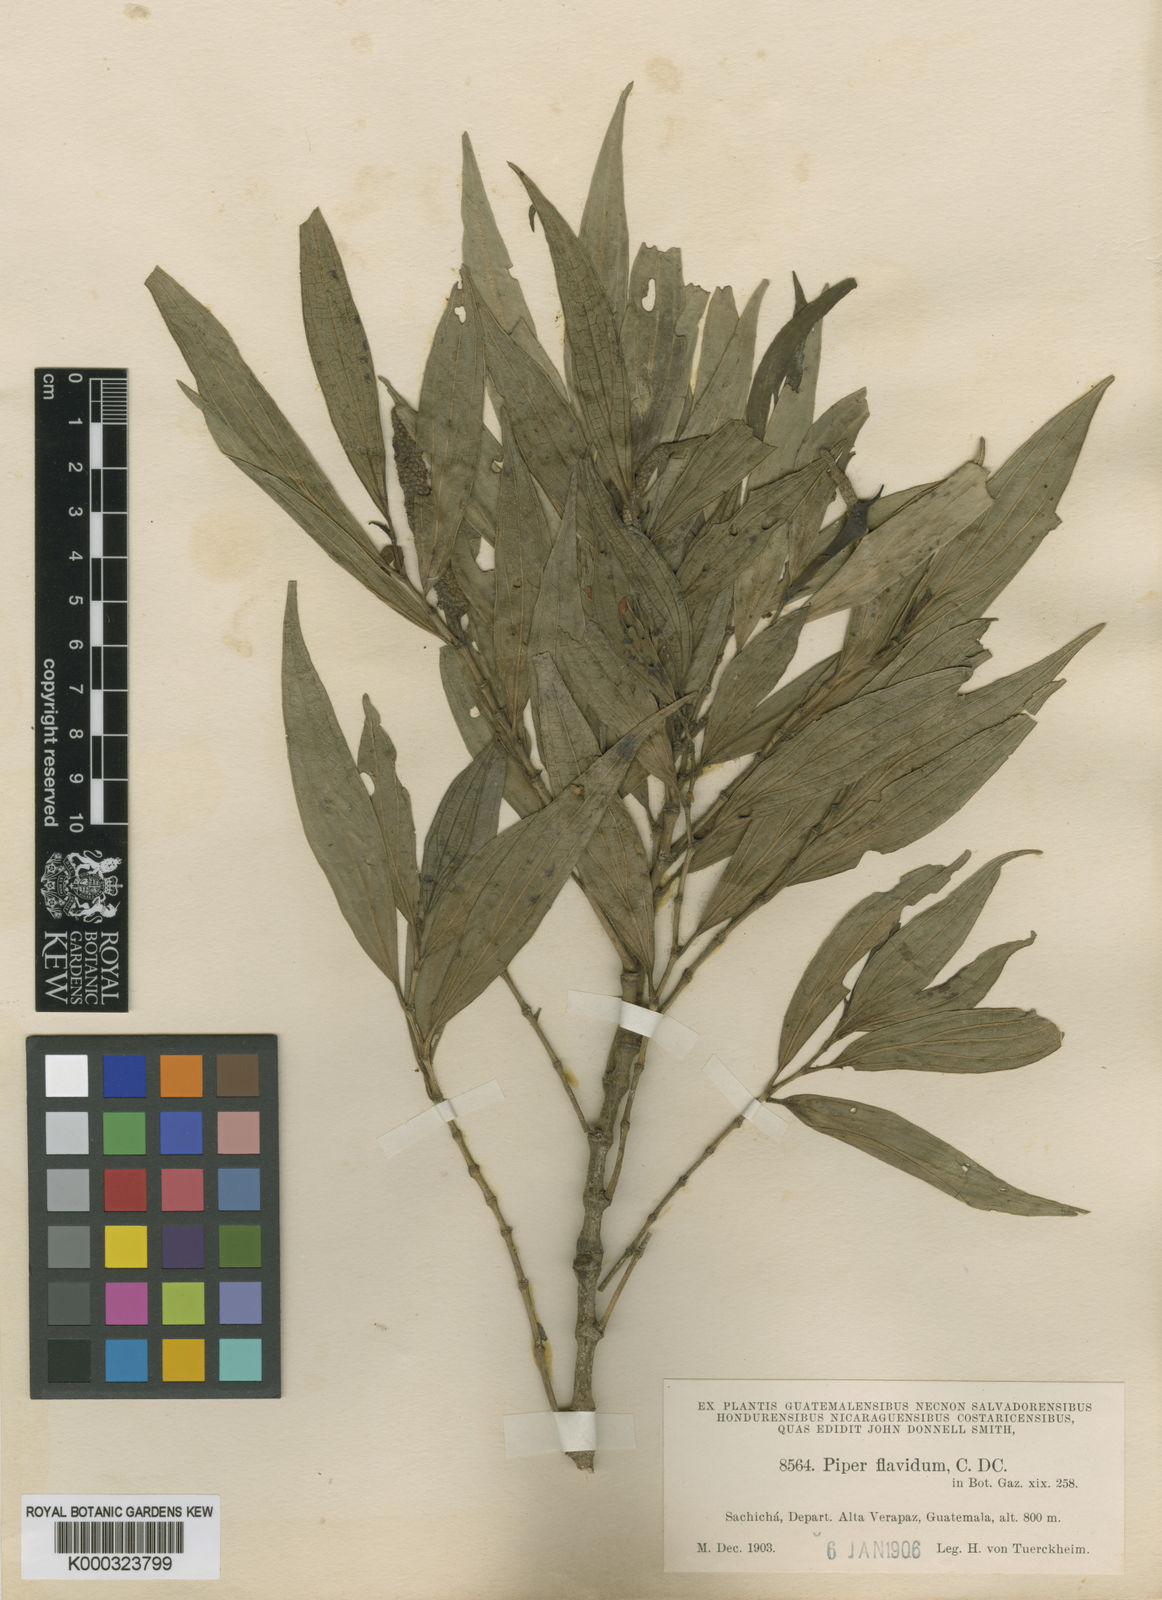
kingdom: Plantae
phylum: Tracheophyta
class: Magnoliopsida
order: Piperales
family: Piperaceae
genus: Piper
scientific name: Piper flavidum
